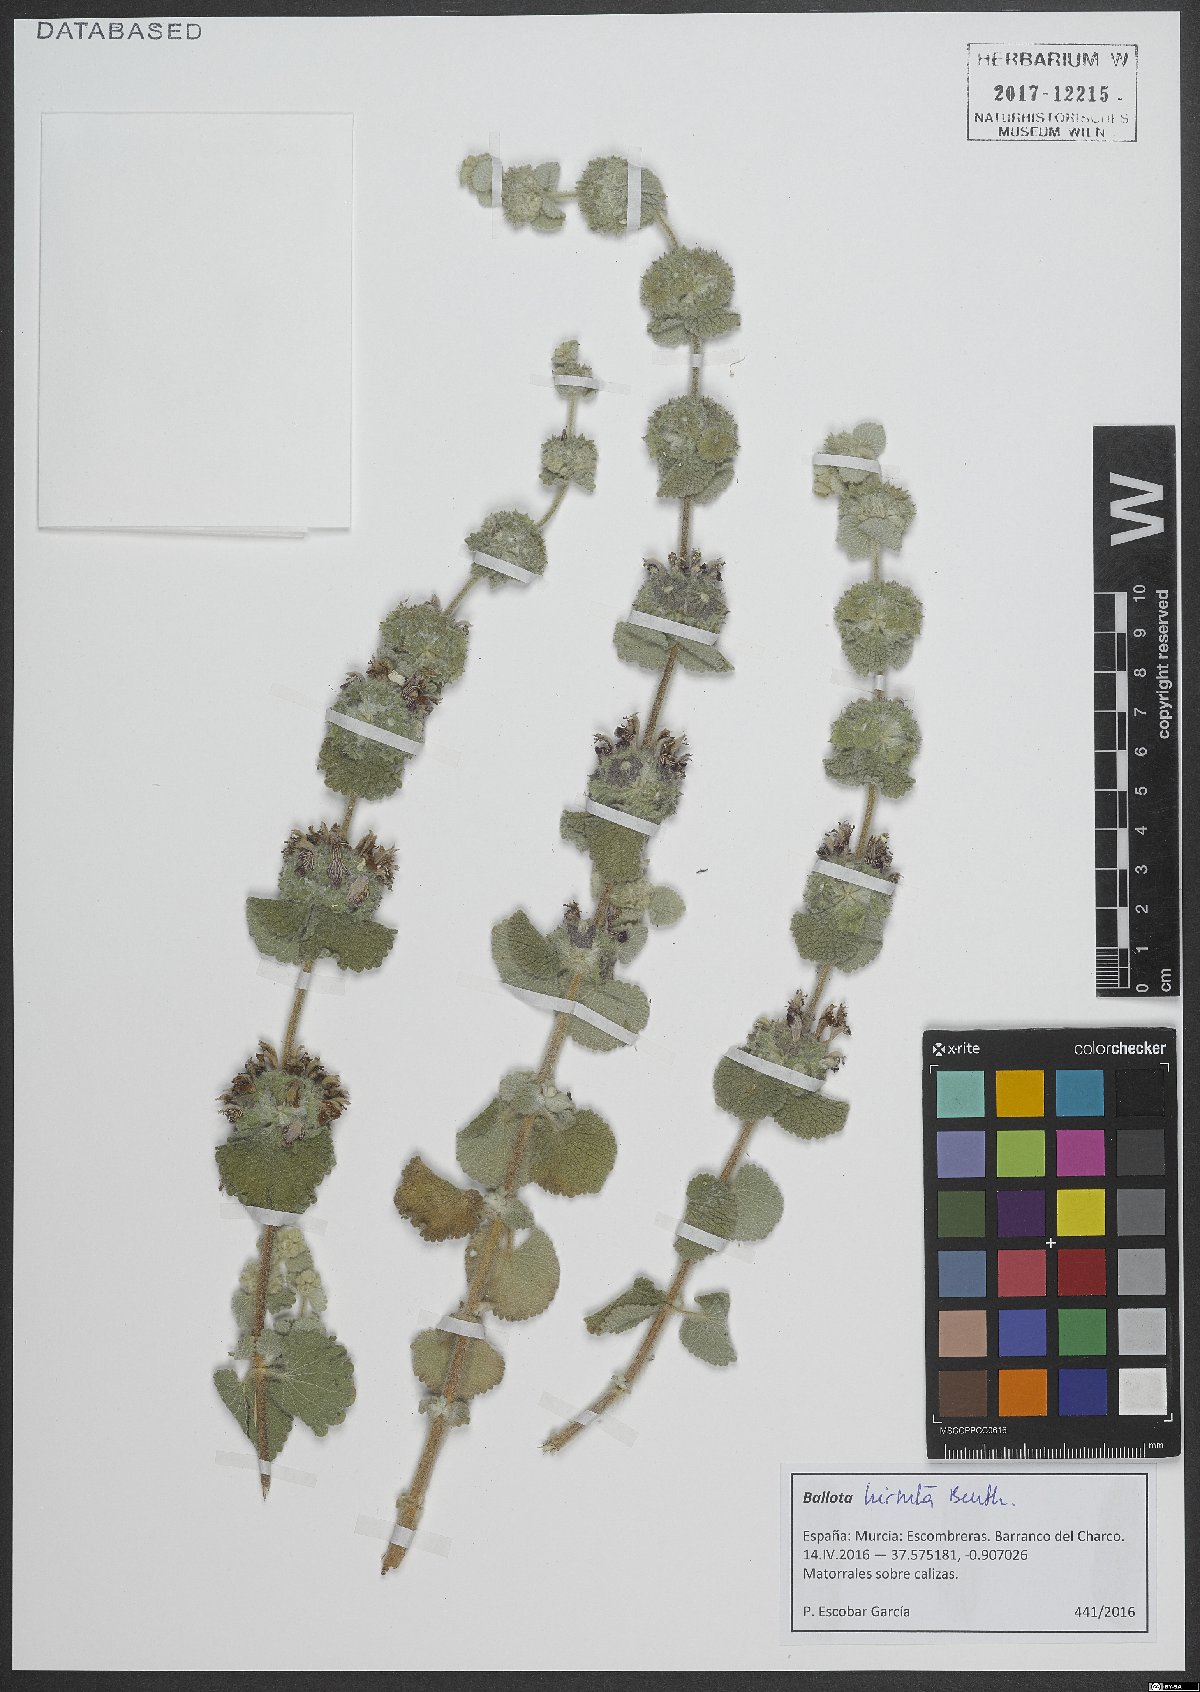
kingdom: Plantae
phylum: Tracheophyta
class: Magnoliopsida
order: Lamiales
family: Lamiaceae
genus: Pseudodictamnus
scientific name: Pseudodictamnus hirsutus
